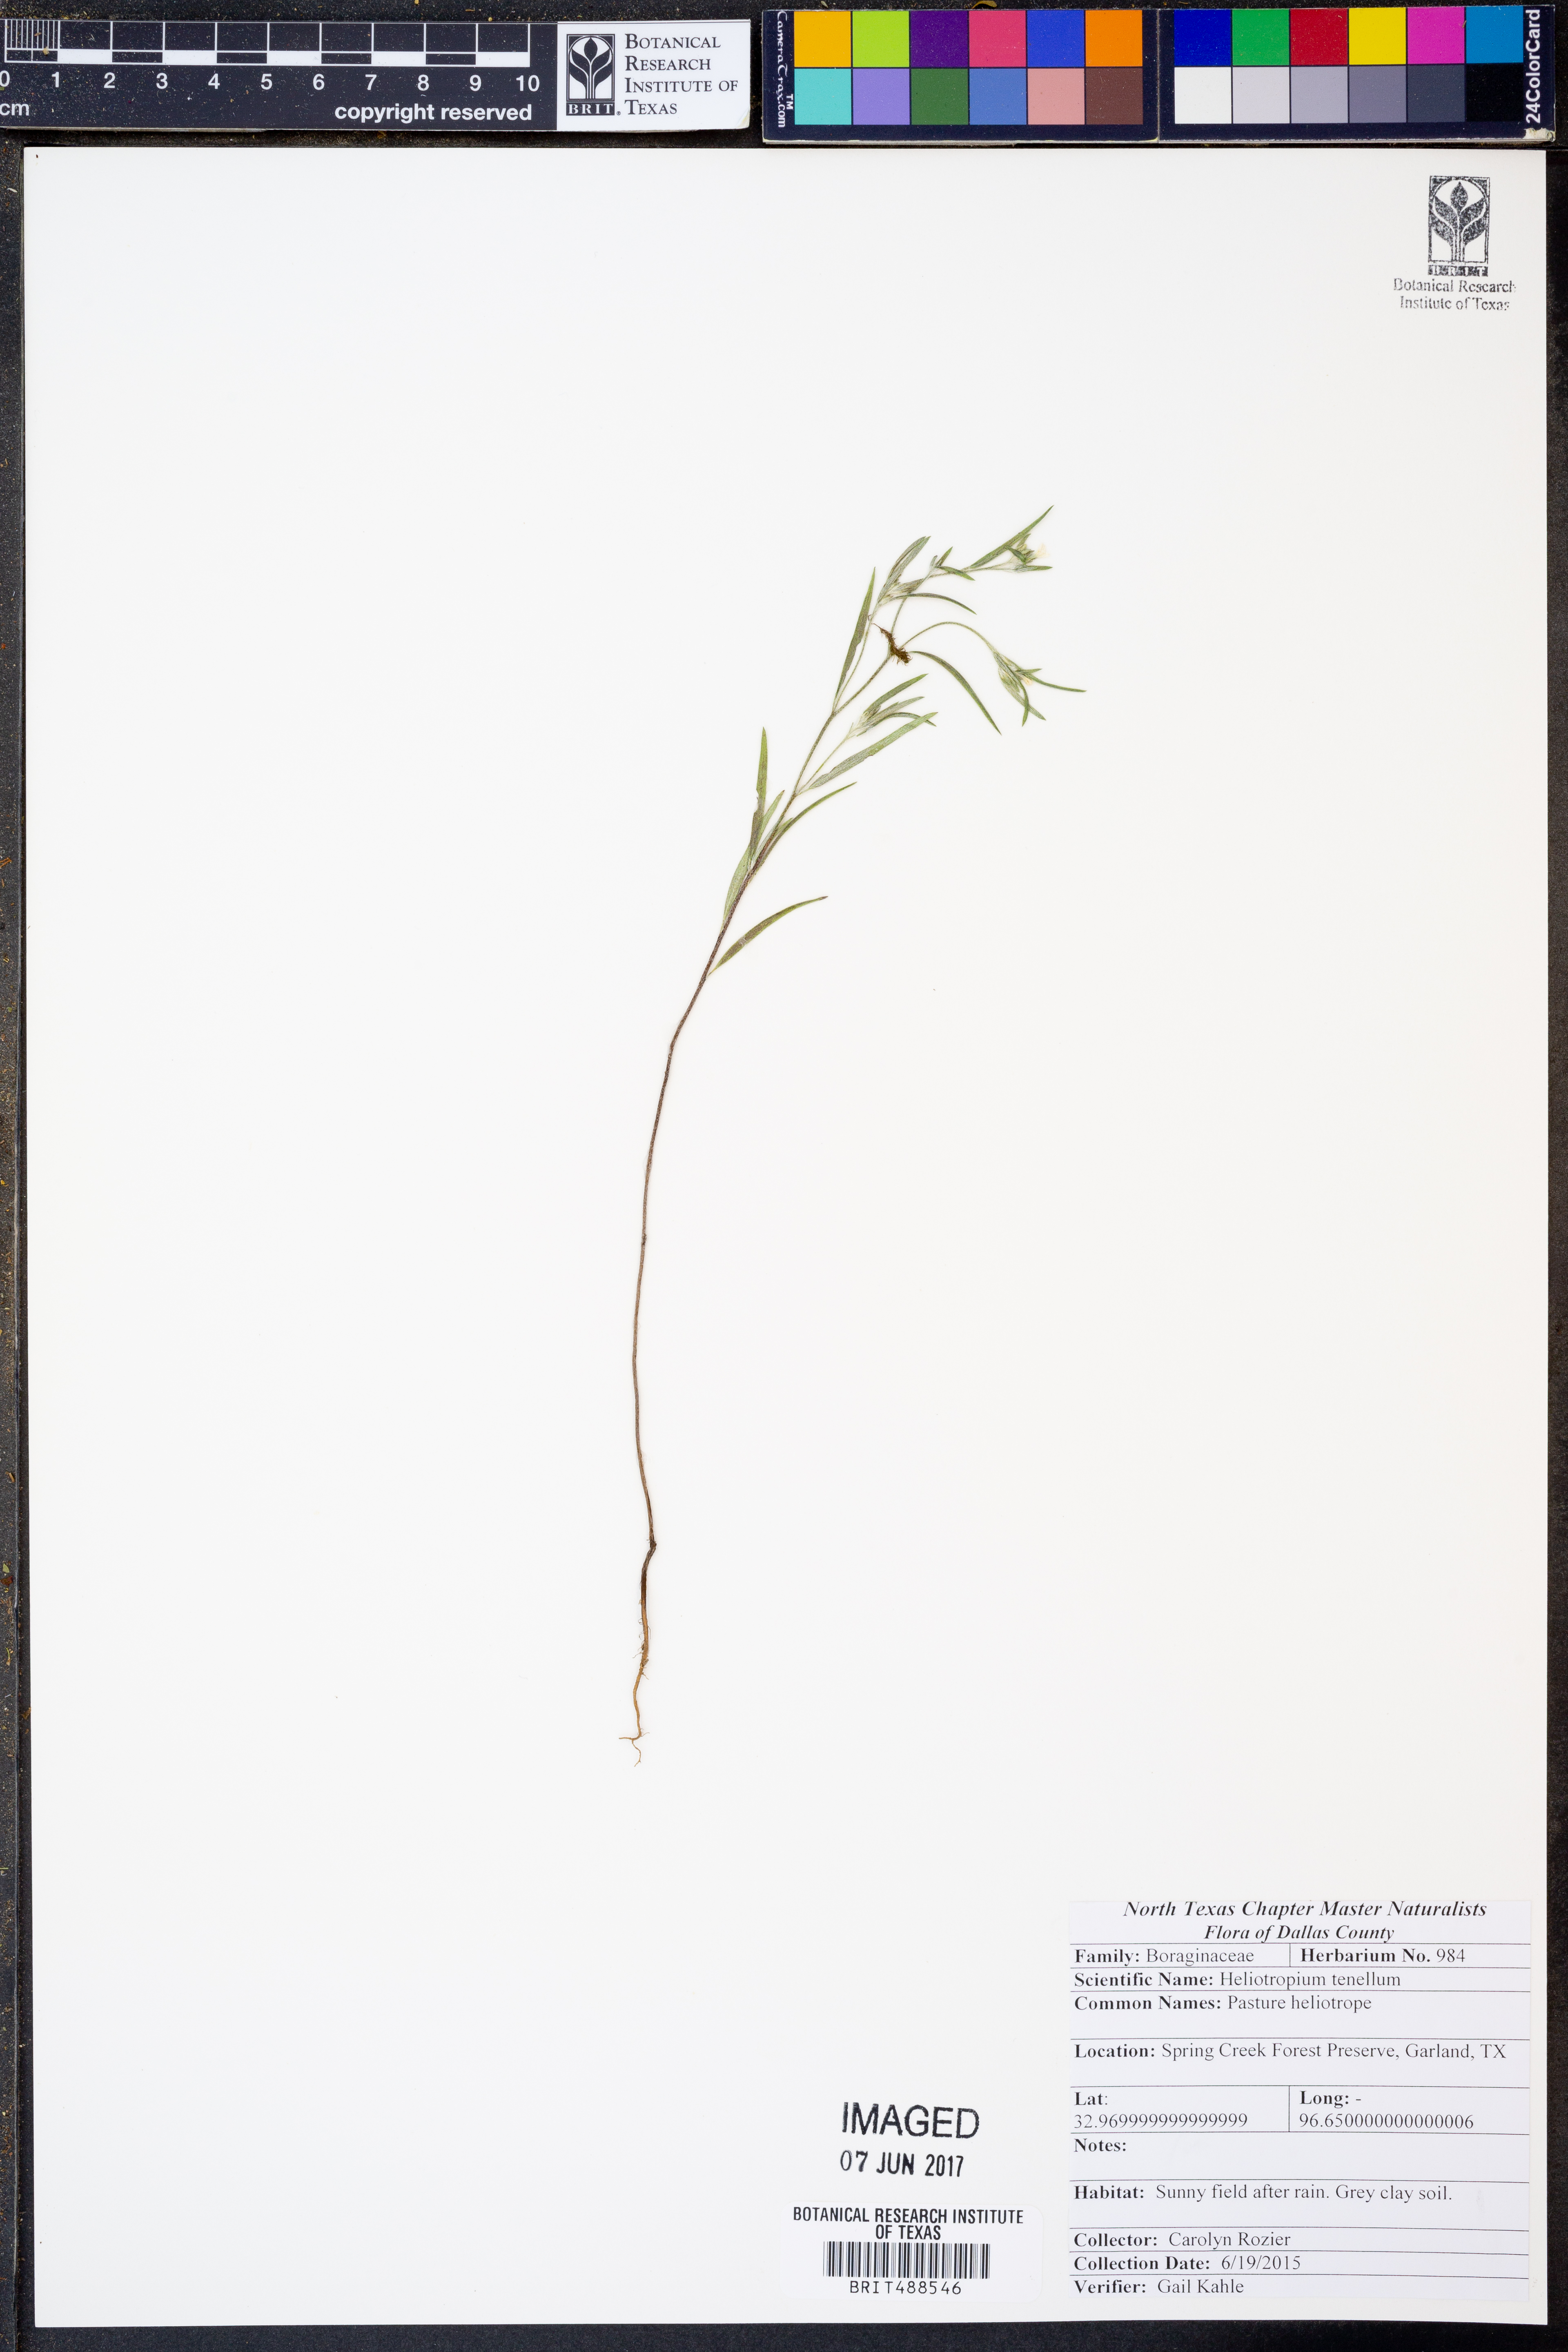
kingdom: Plantae
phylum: Tracheophyta
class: Magnoliopsida
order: Boraginales
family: Heliotropiaceae
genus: Euploca
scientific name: Euploca tenella
